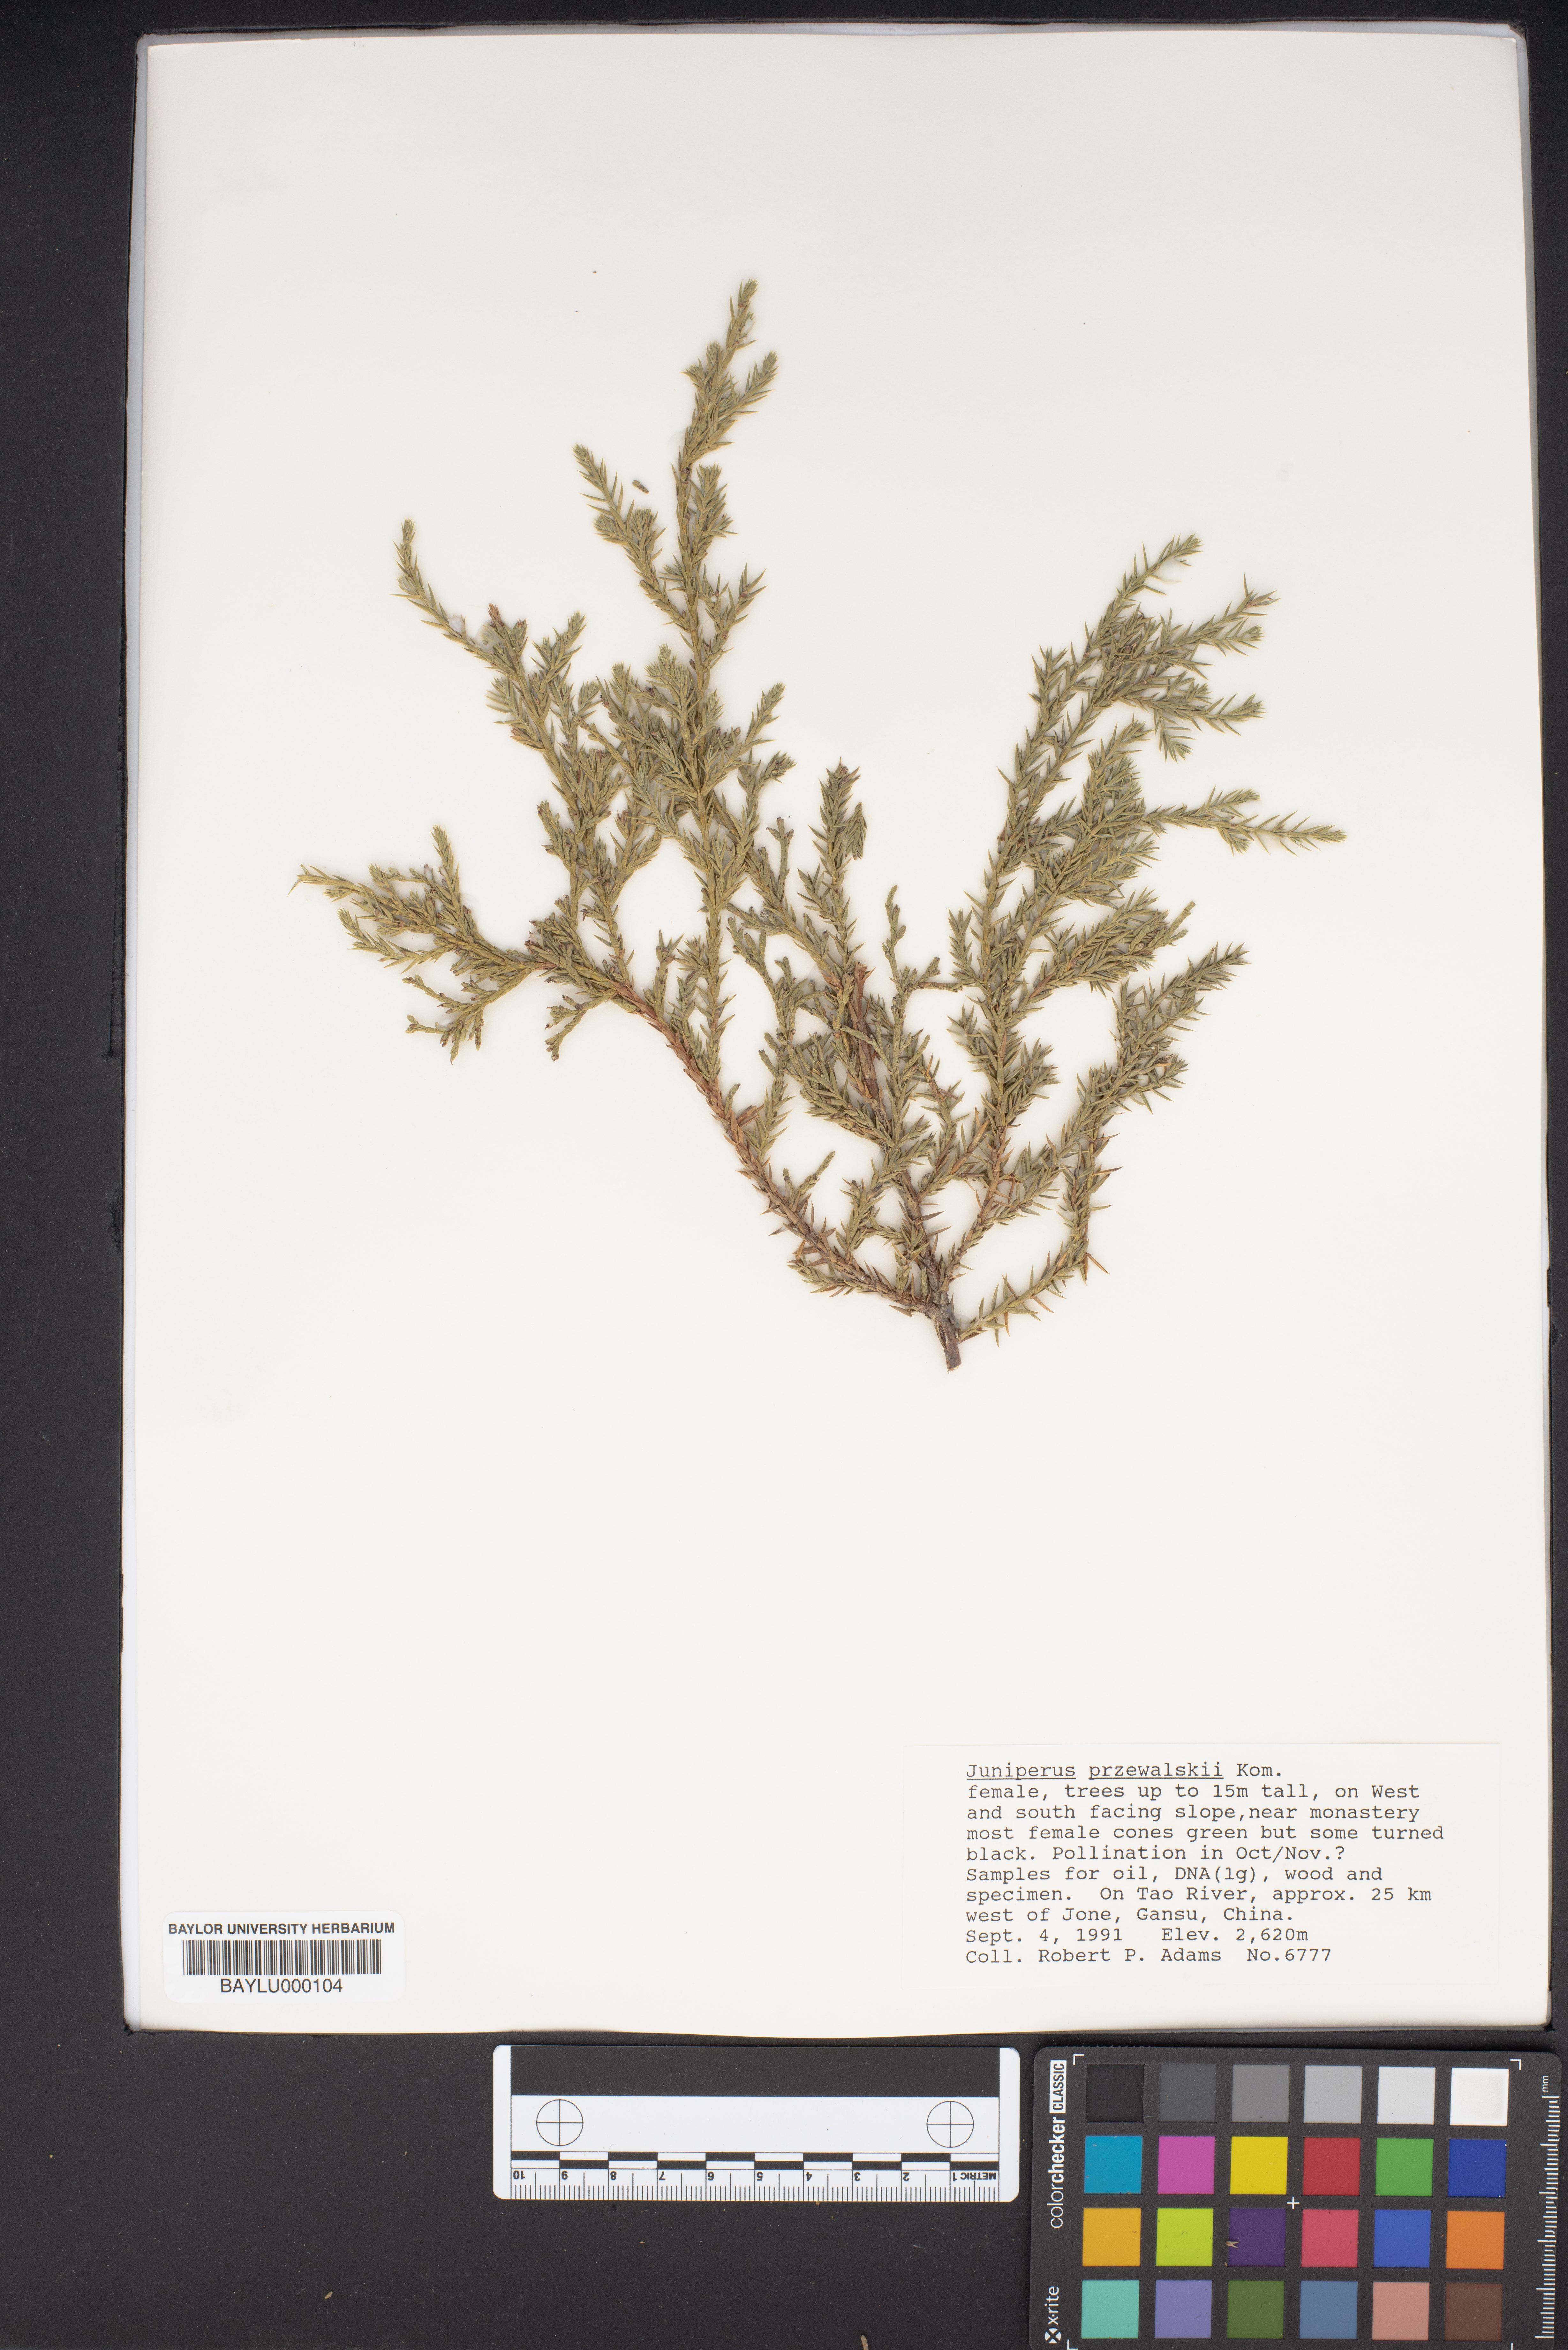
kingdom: Plantae
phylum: Tracheophyta
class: Pinopsida
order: Pinales
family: Cupressaceae
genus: Juniperus
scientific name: Juniperus przewalskii
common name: Przewalsi juniper
